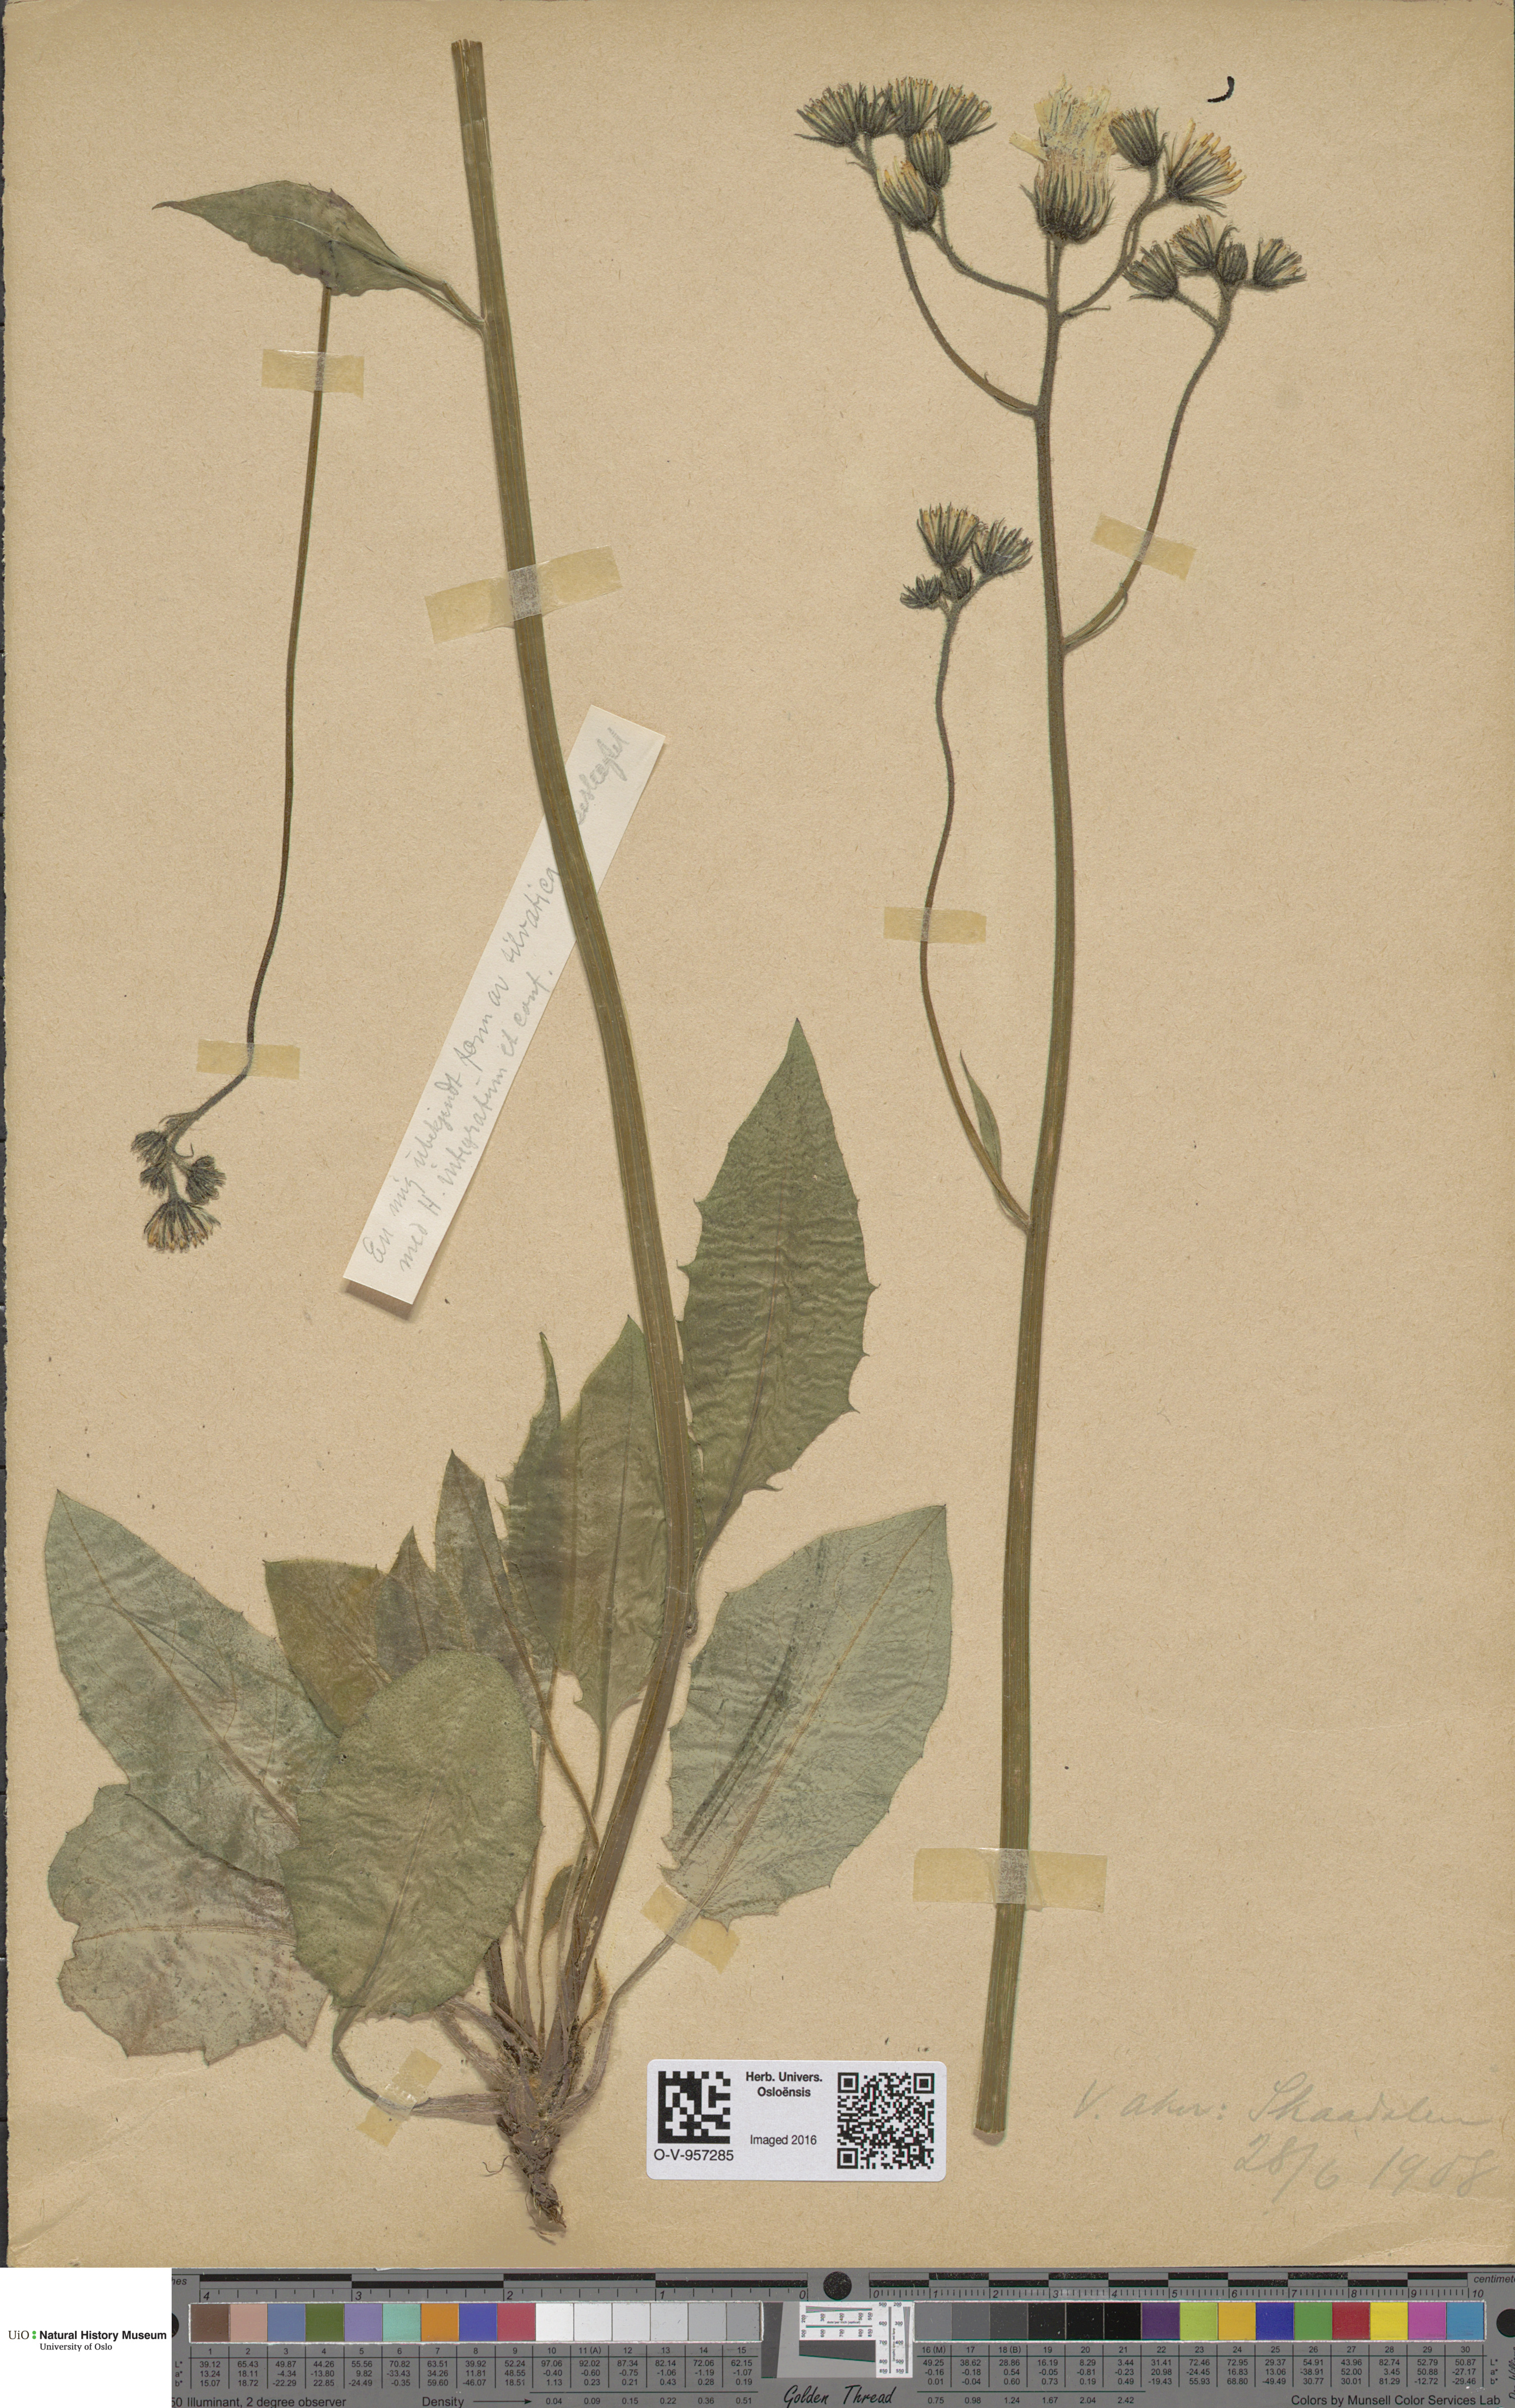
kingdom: Plantae
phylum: Tracheophyta
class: Magnoliopsida
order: Asterales
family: Asteraceae
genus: Hieracium
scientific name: Hieracium
